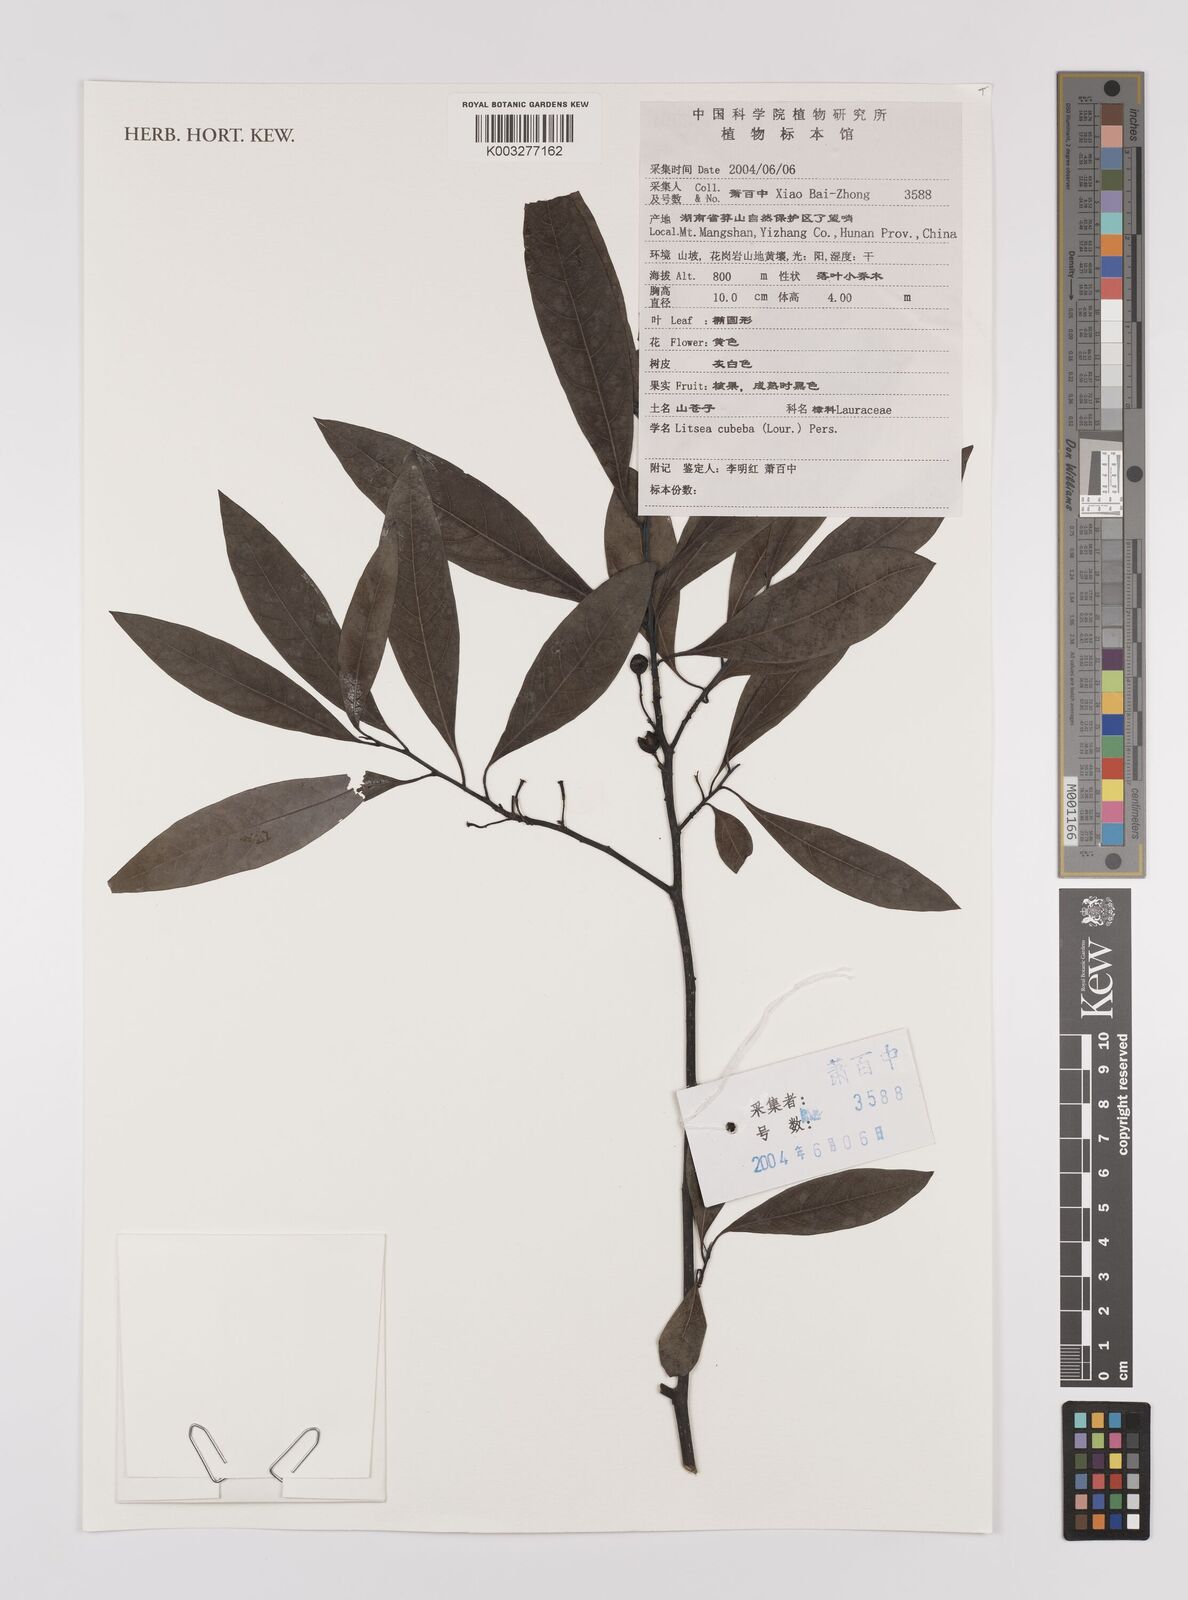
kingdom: Plantae
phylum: Tracheophyta
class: Magnoliopsida
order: Laurales
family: Lauraceae
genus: Litsea
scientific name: Litsea cubeba
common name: Mountain-pepper
